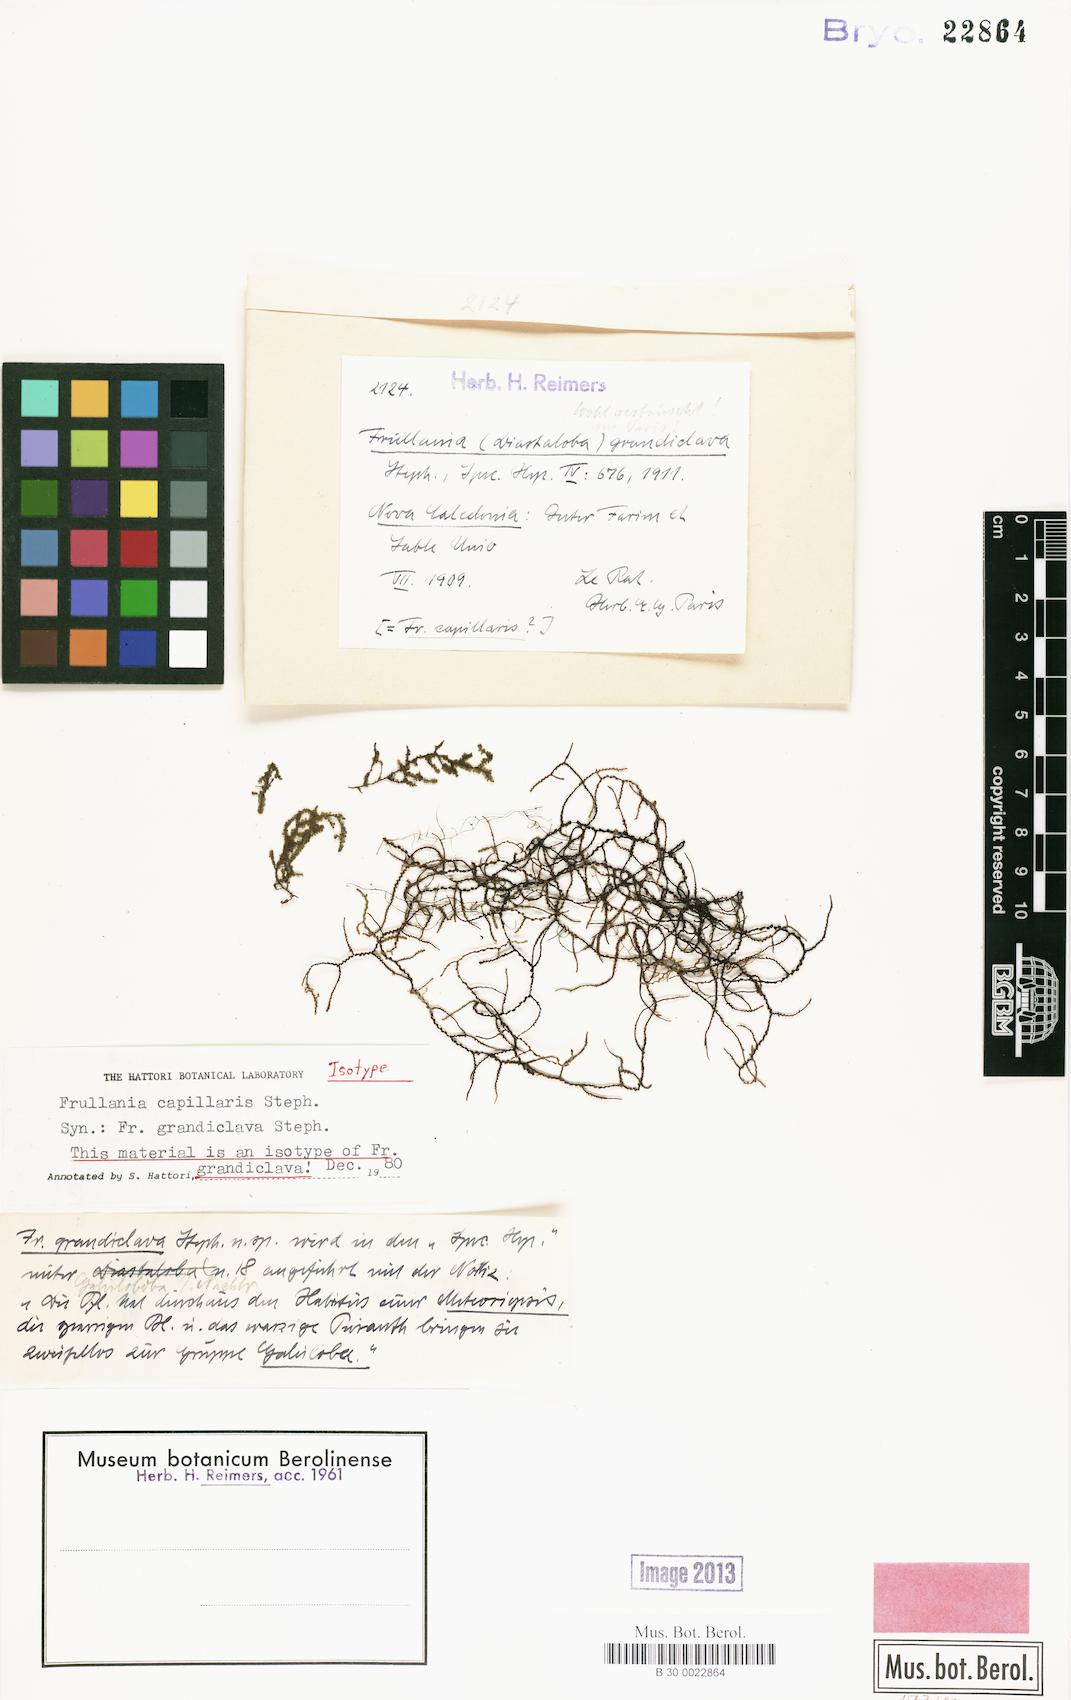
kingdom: Plantae
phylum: Marchantiophyta
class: Jungermanniopsida
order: Porellales
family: Frullaniaceae
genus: Frullania
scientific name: Frullania capillaris
